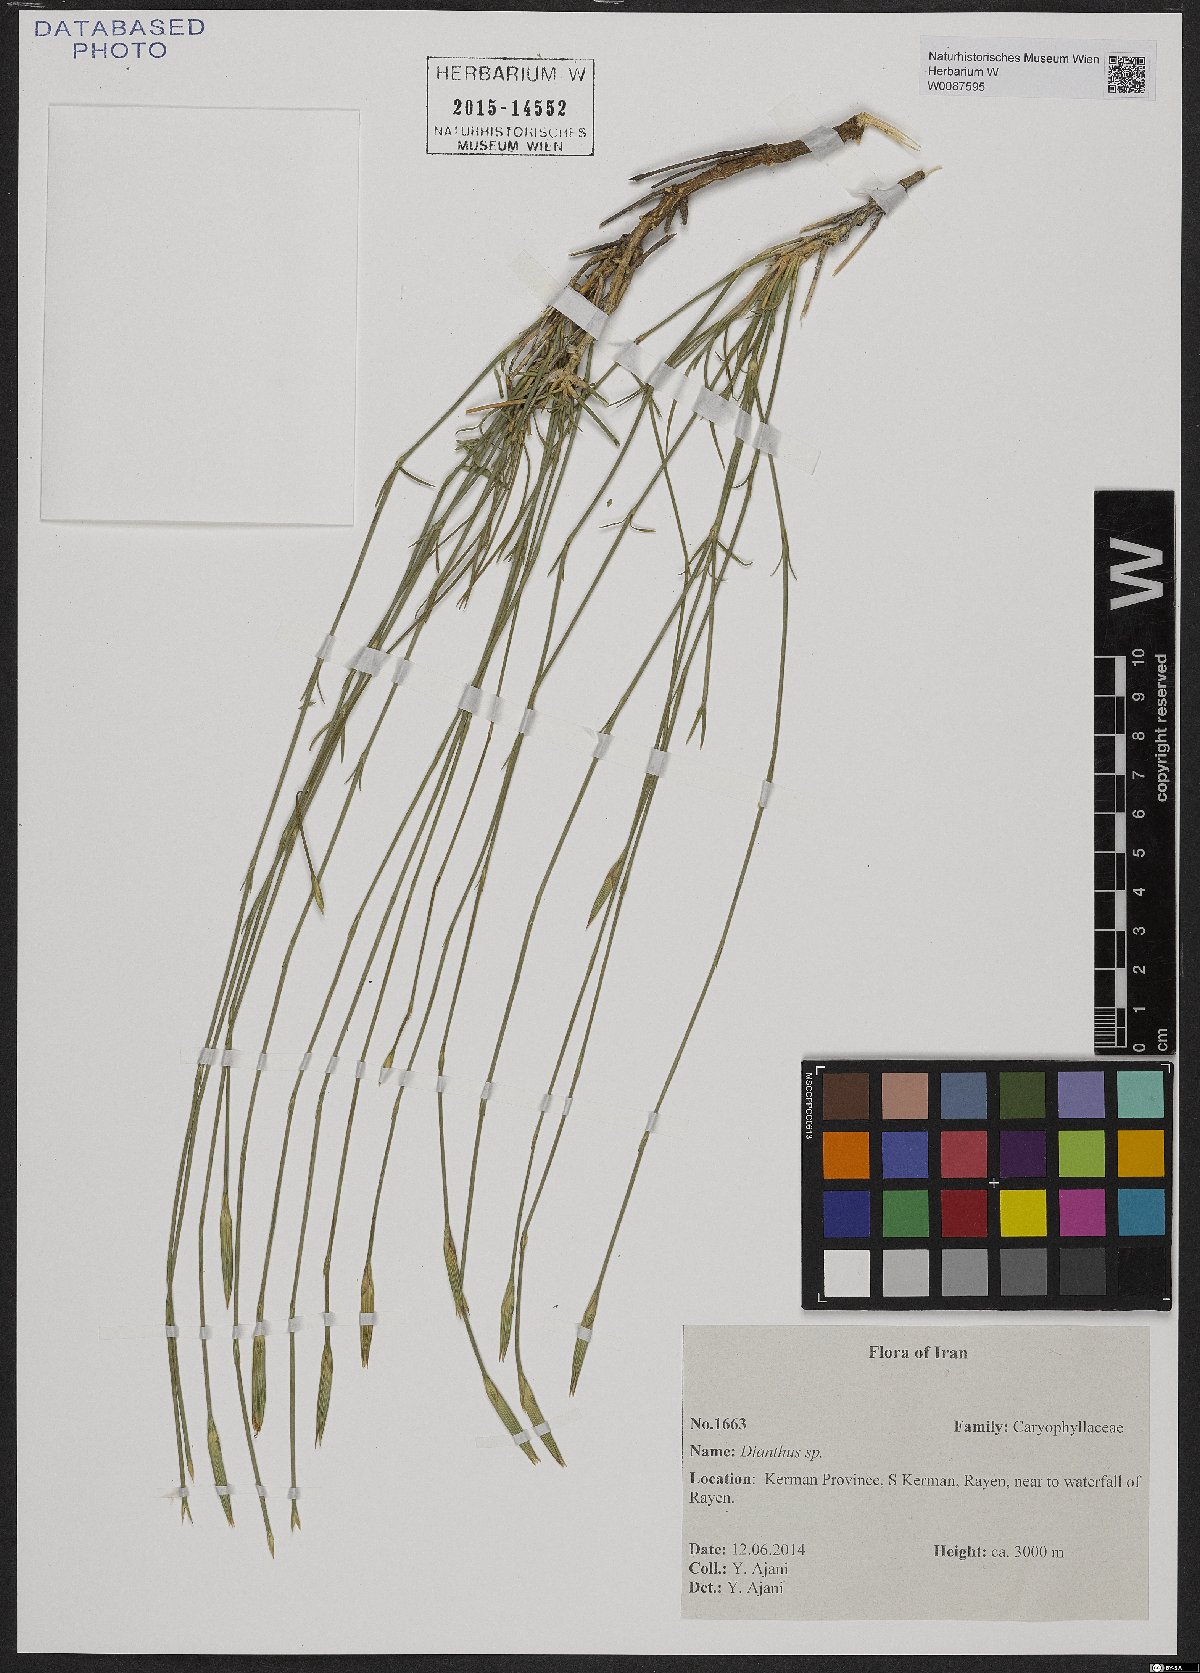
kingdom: Plantae
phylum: Tracheophyta
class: Magnoliopsida
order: Caryophyllales
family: Caryophyllaceae
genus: Dianthus
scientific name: Dianthus
